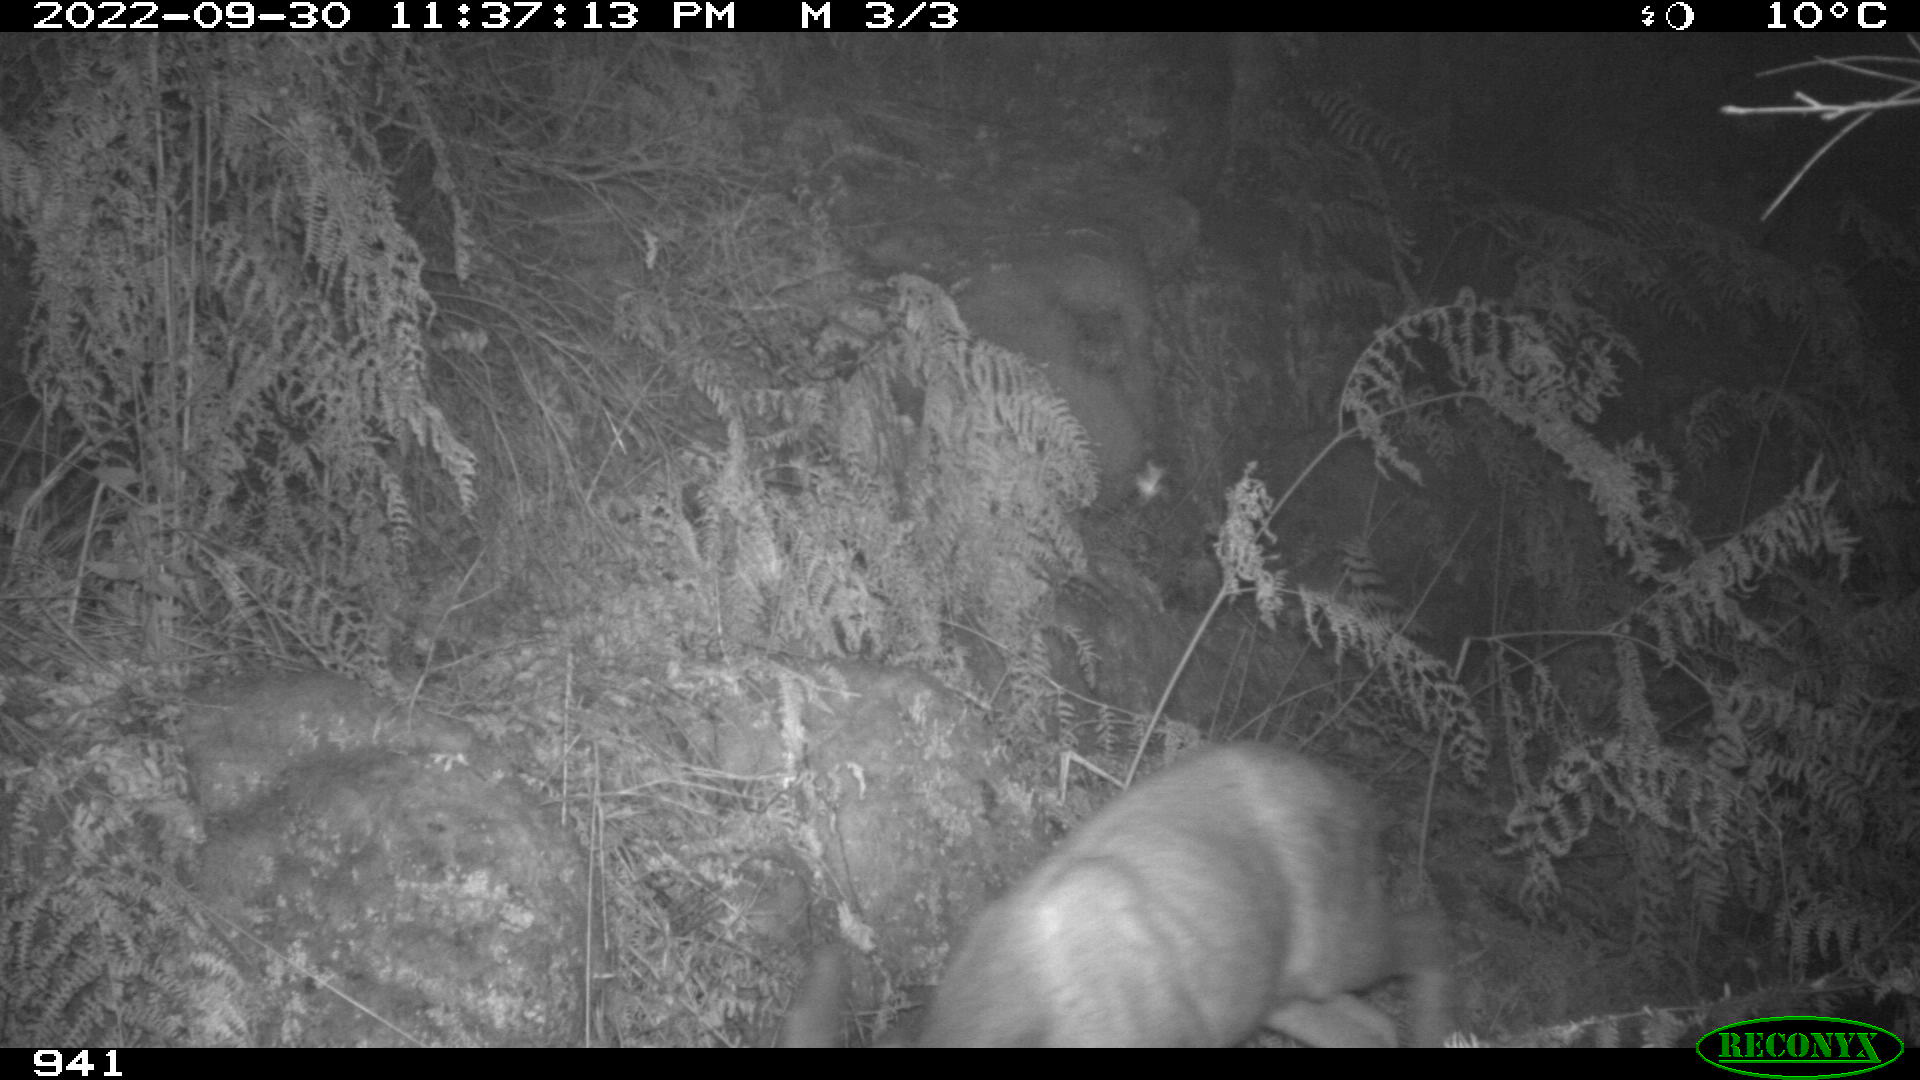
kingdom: Animalia
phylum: Chordata
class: Mammalia
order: Artiodactyla
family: Cervidae
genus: Capreolus
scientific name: Capreolus capreolus
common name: Western roe deer
